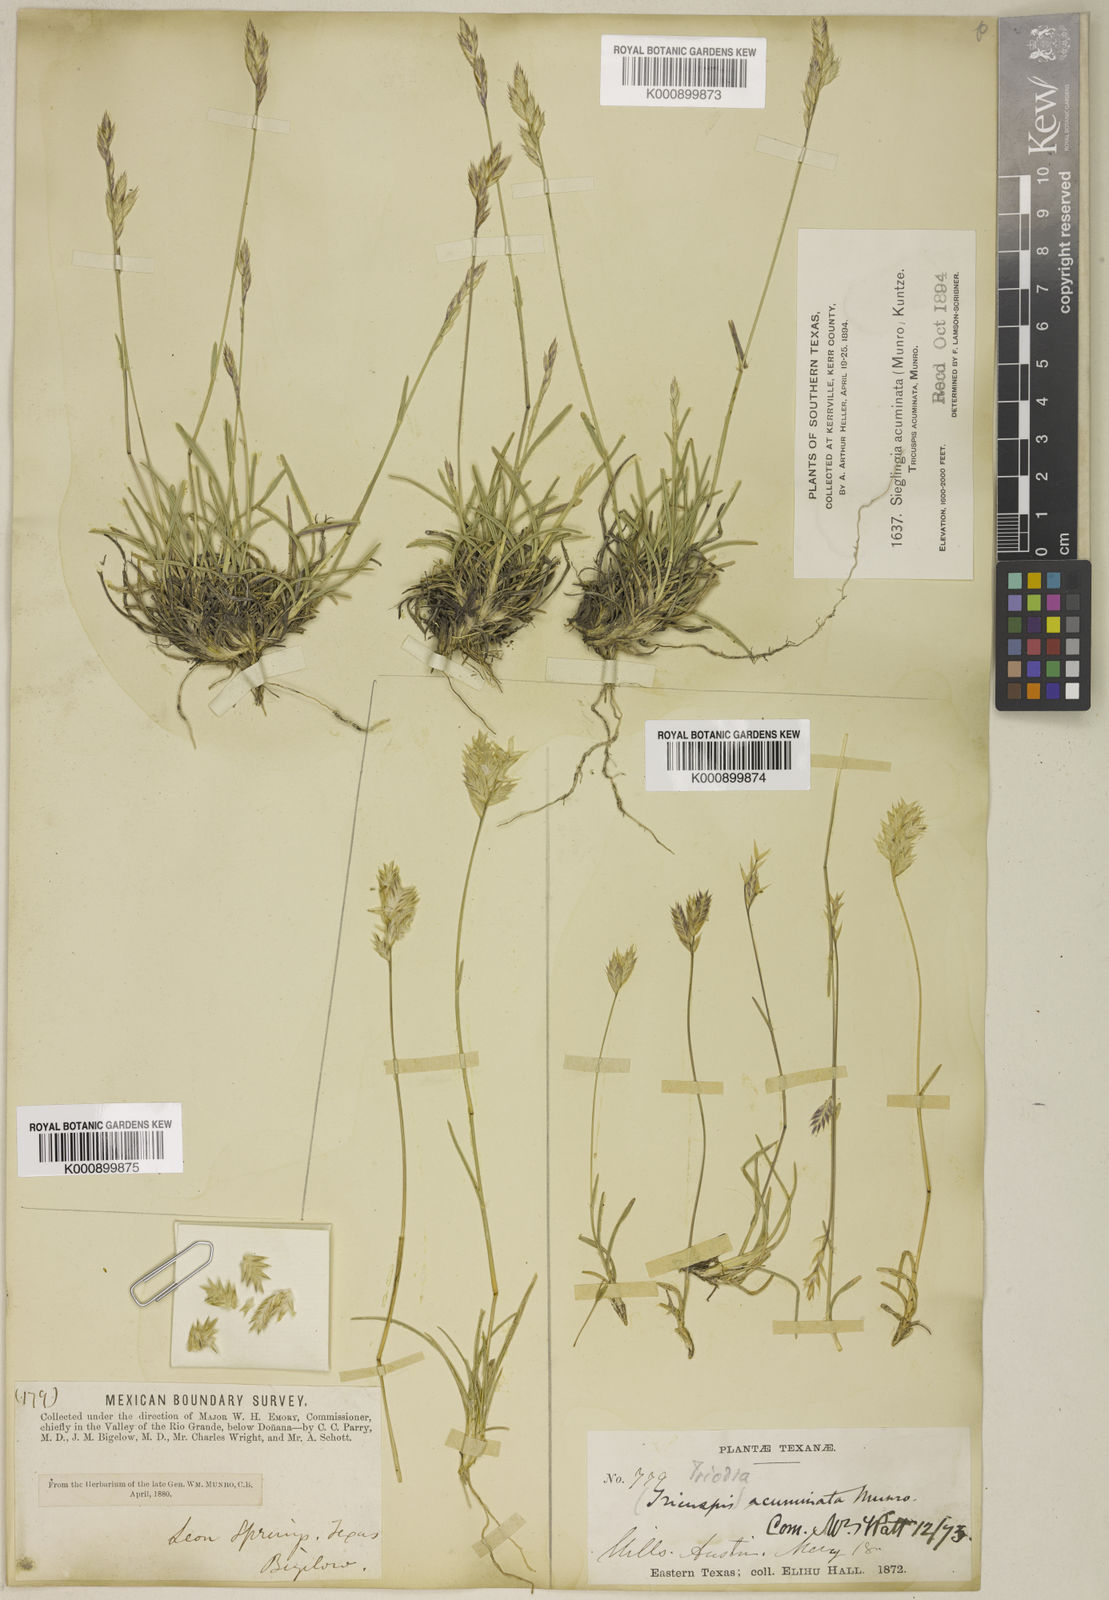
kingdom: Plantae
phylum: Tracheophyta
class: Liliopsida
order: Poales
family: Poaceae
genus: Erioneuron
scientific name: Erioneuron pilosum
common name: Hairy woolly grass
